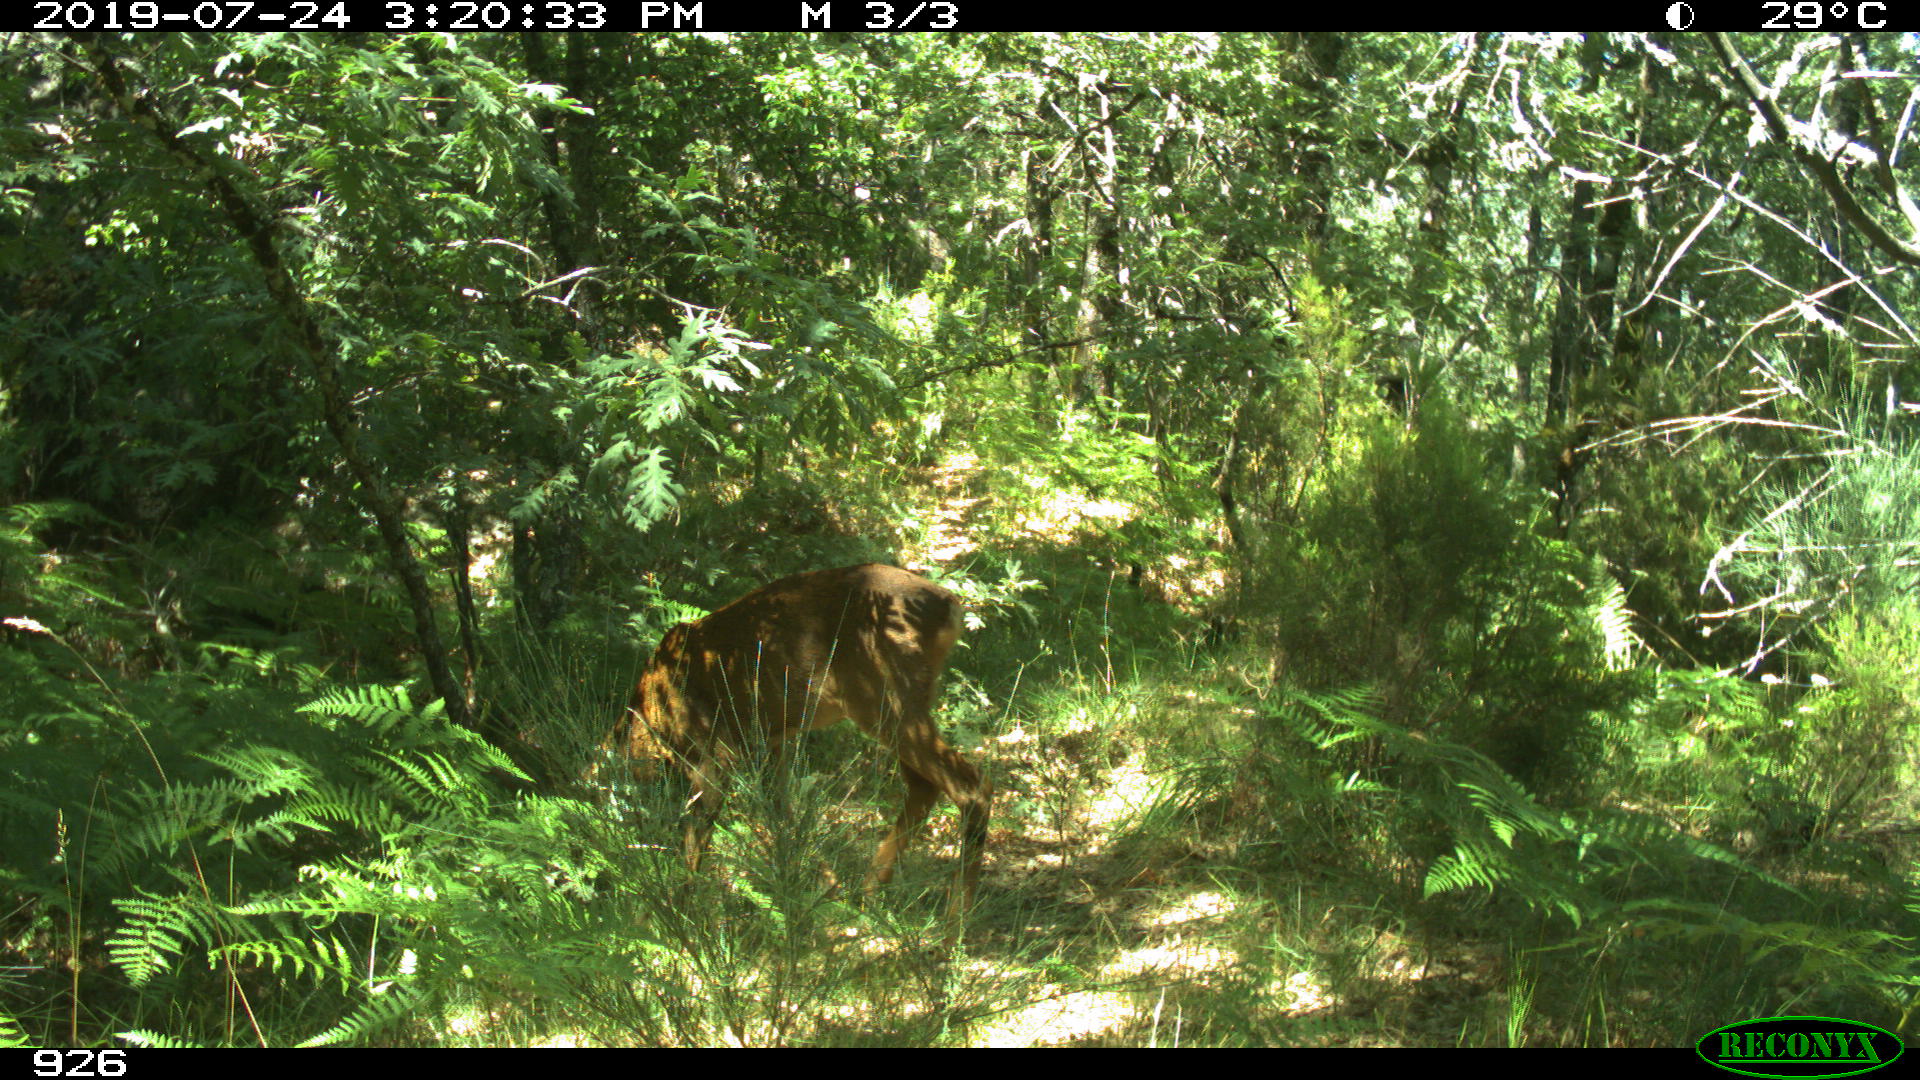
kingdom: Animalia
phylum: Chordata
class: Mammalia
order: Artiodactyla
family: Cervidae
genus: Capreolus
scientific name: Capreolus capreolus
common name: Western roe deer
